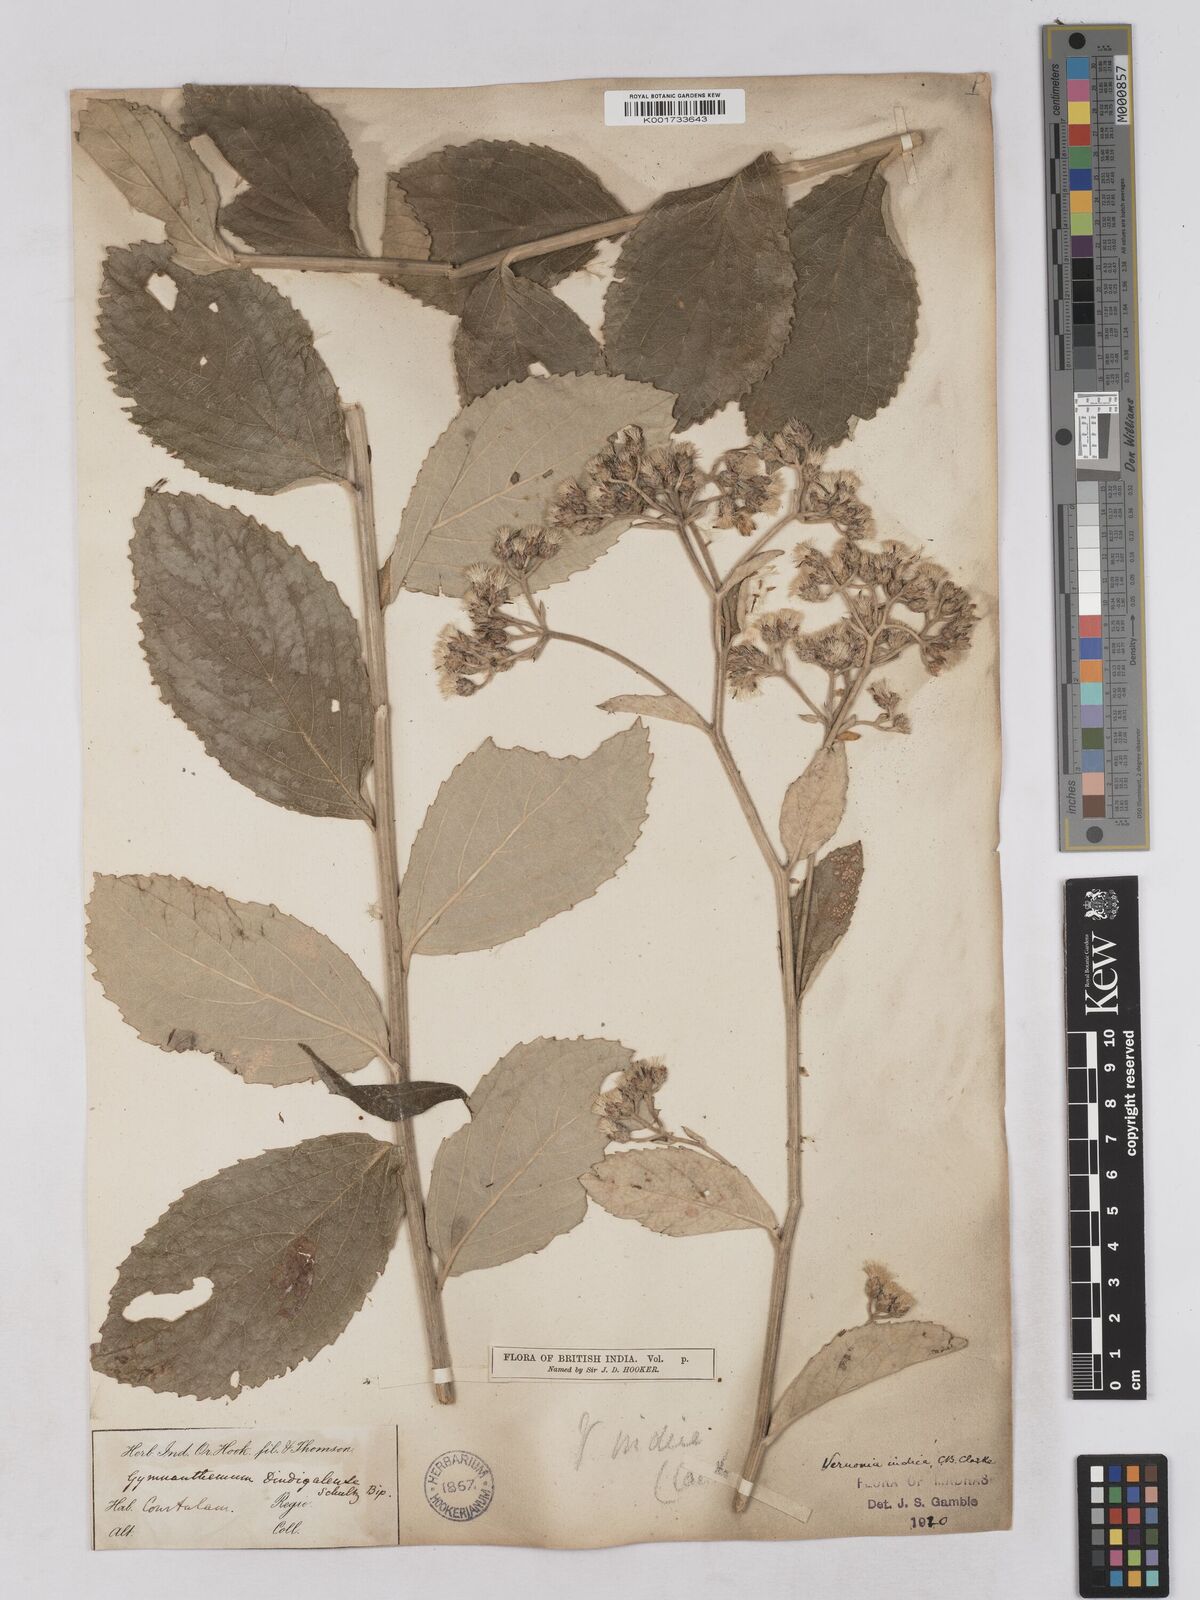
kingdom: Plantae
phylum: Tracheophyta
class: Magnoliopsida
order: Asterales
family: Asteraceae
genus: Acilepis
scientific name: Acilepis dendigulensis
